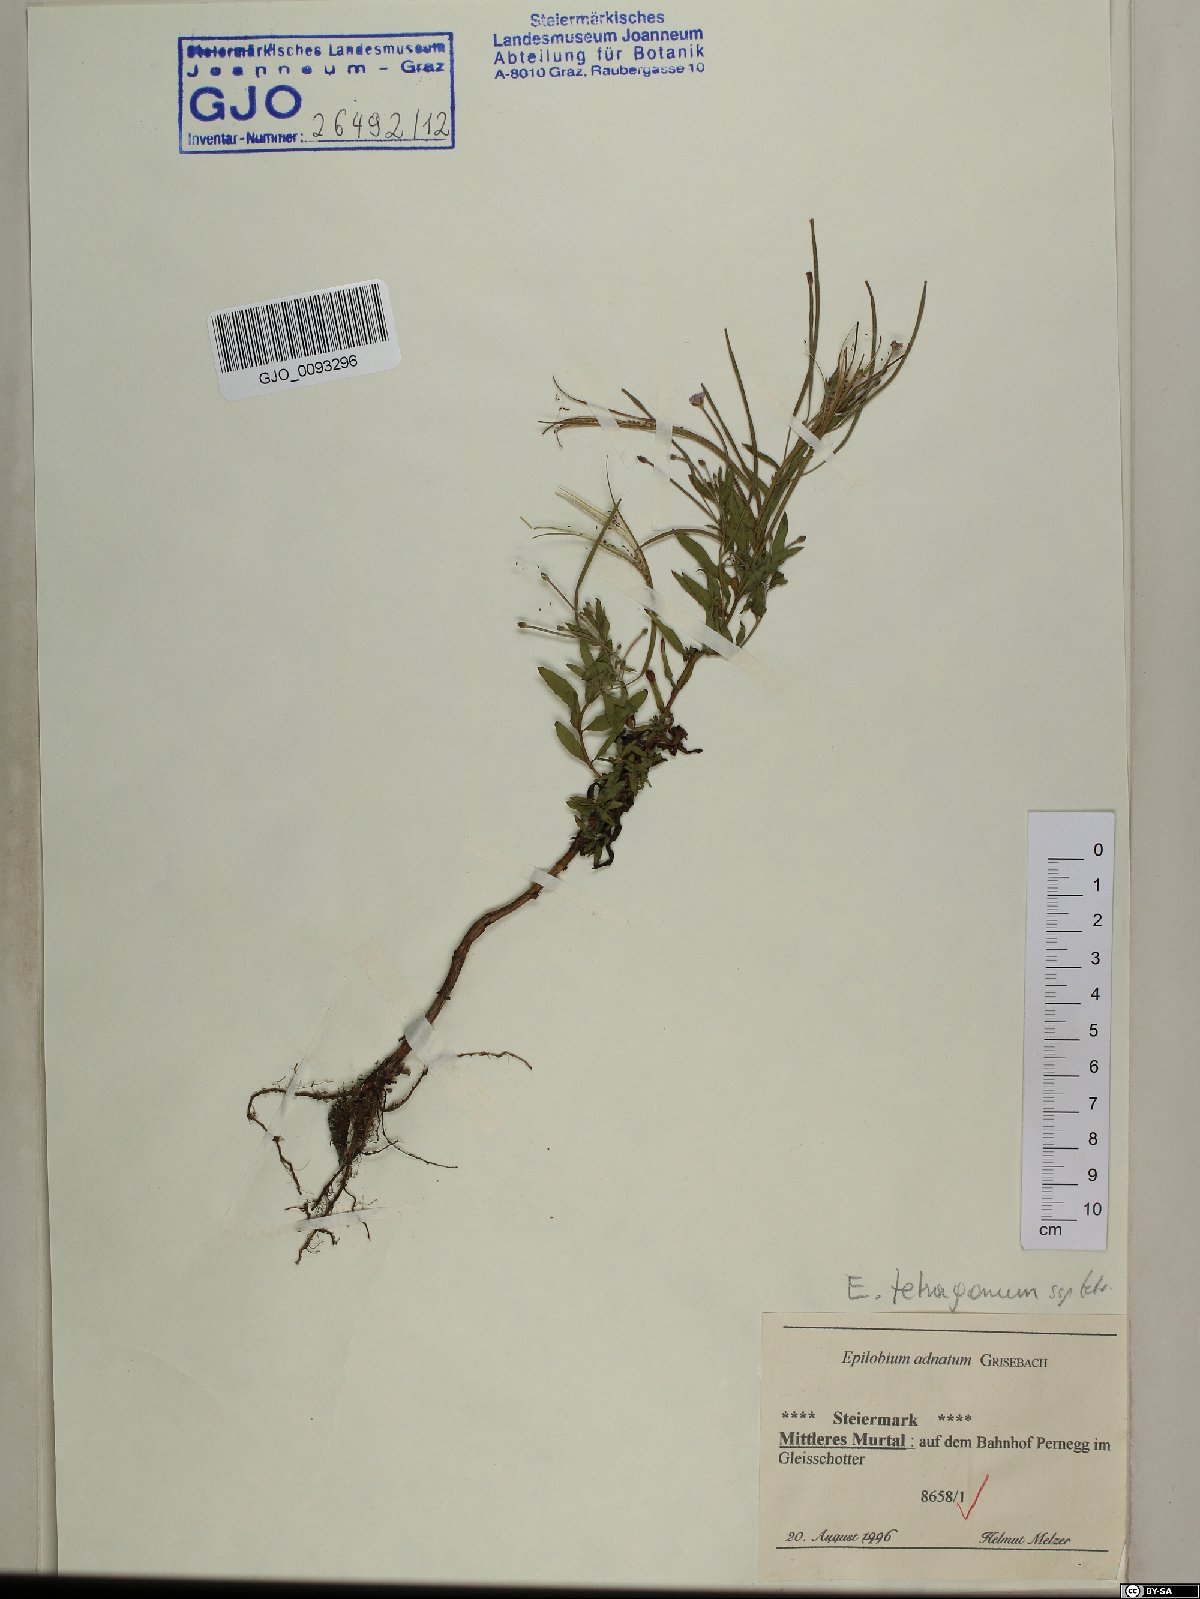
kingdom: Plantae
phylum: Tracheophyta
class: Magnoliopsida
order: Myrtales
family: Onagraceae
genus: Epilobium
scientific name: Epilobium tetragonum
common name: Square-stemmed willowherb
